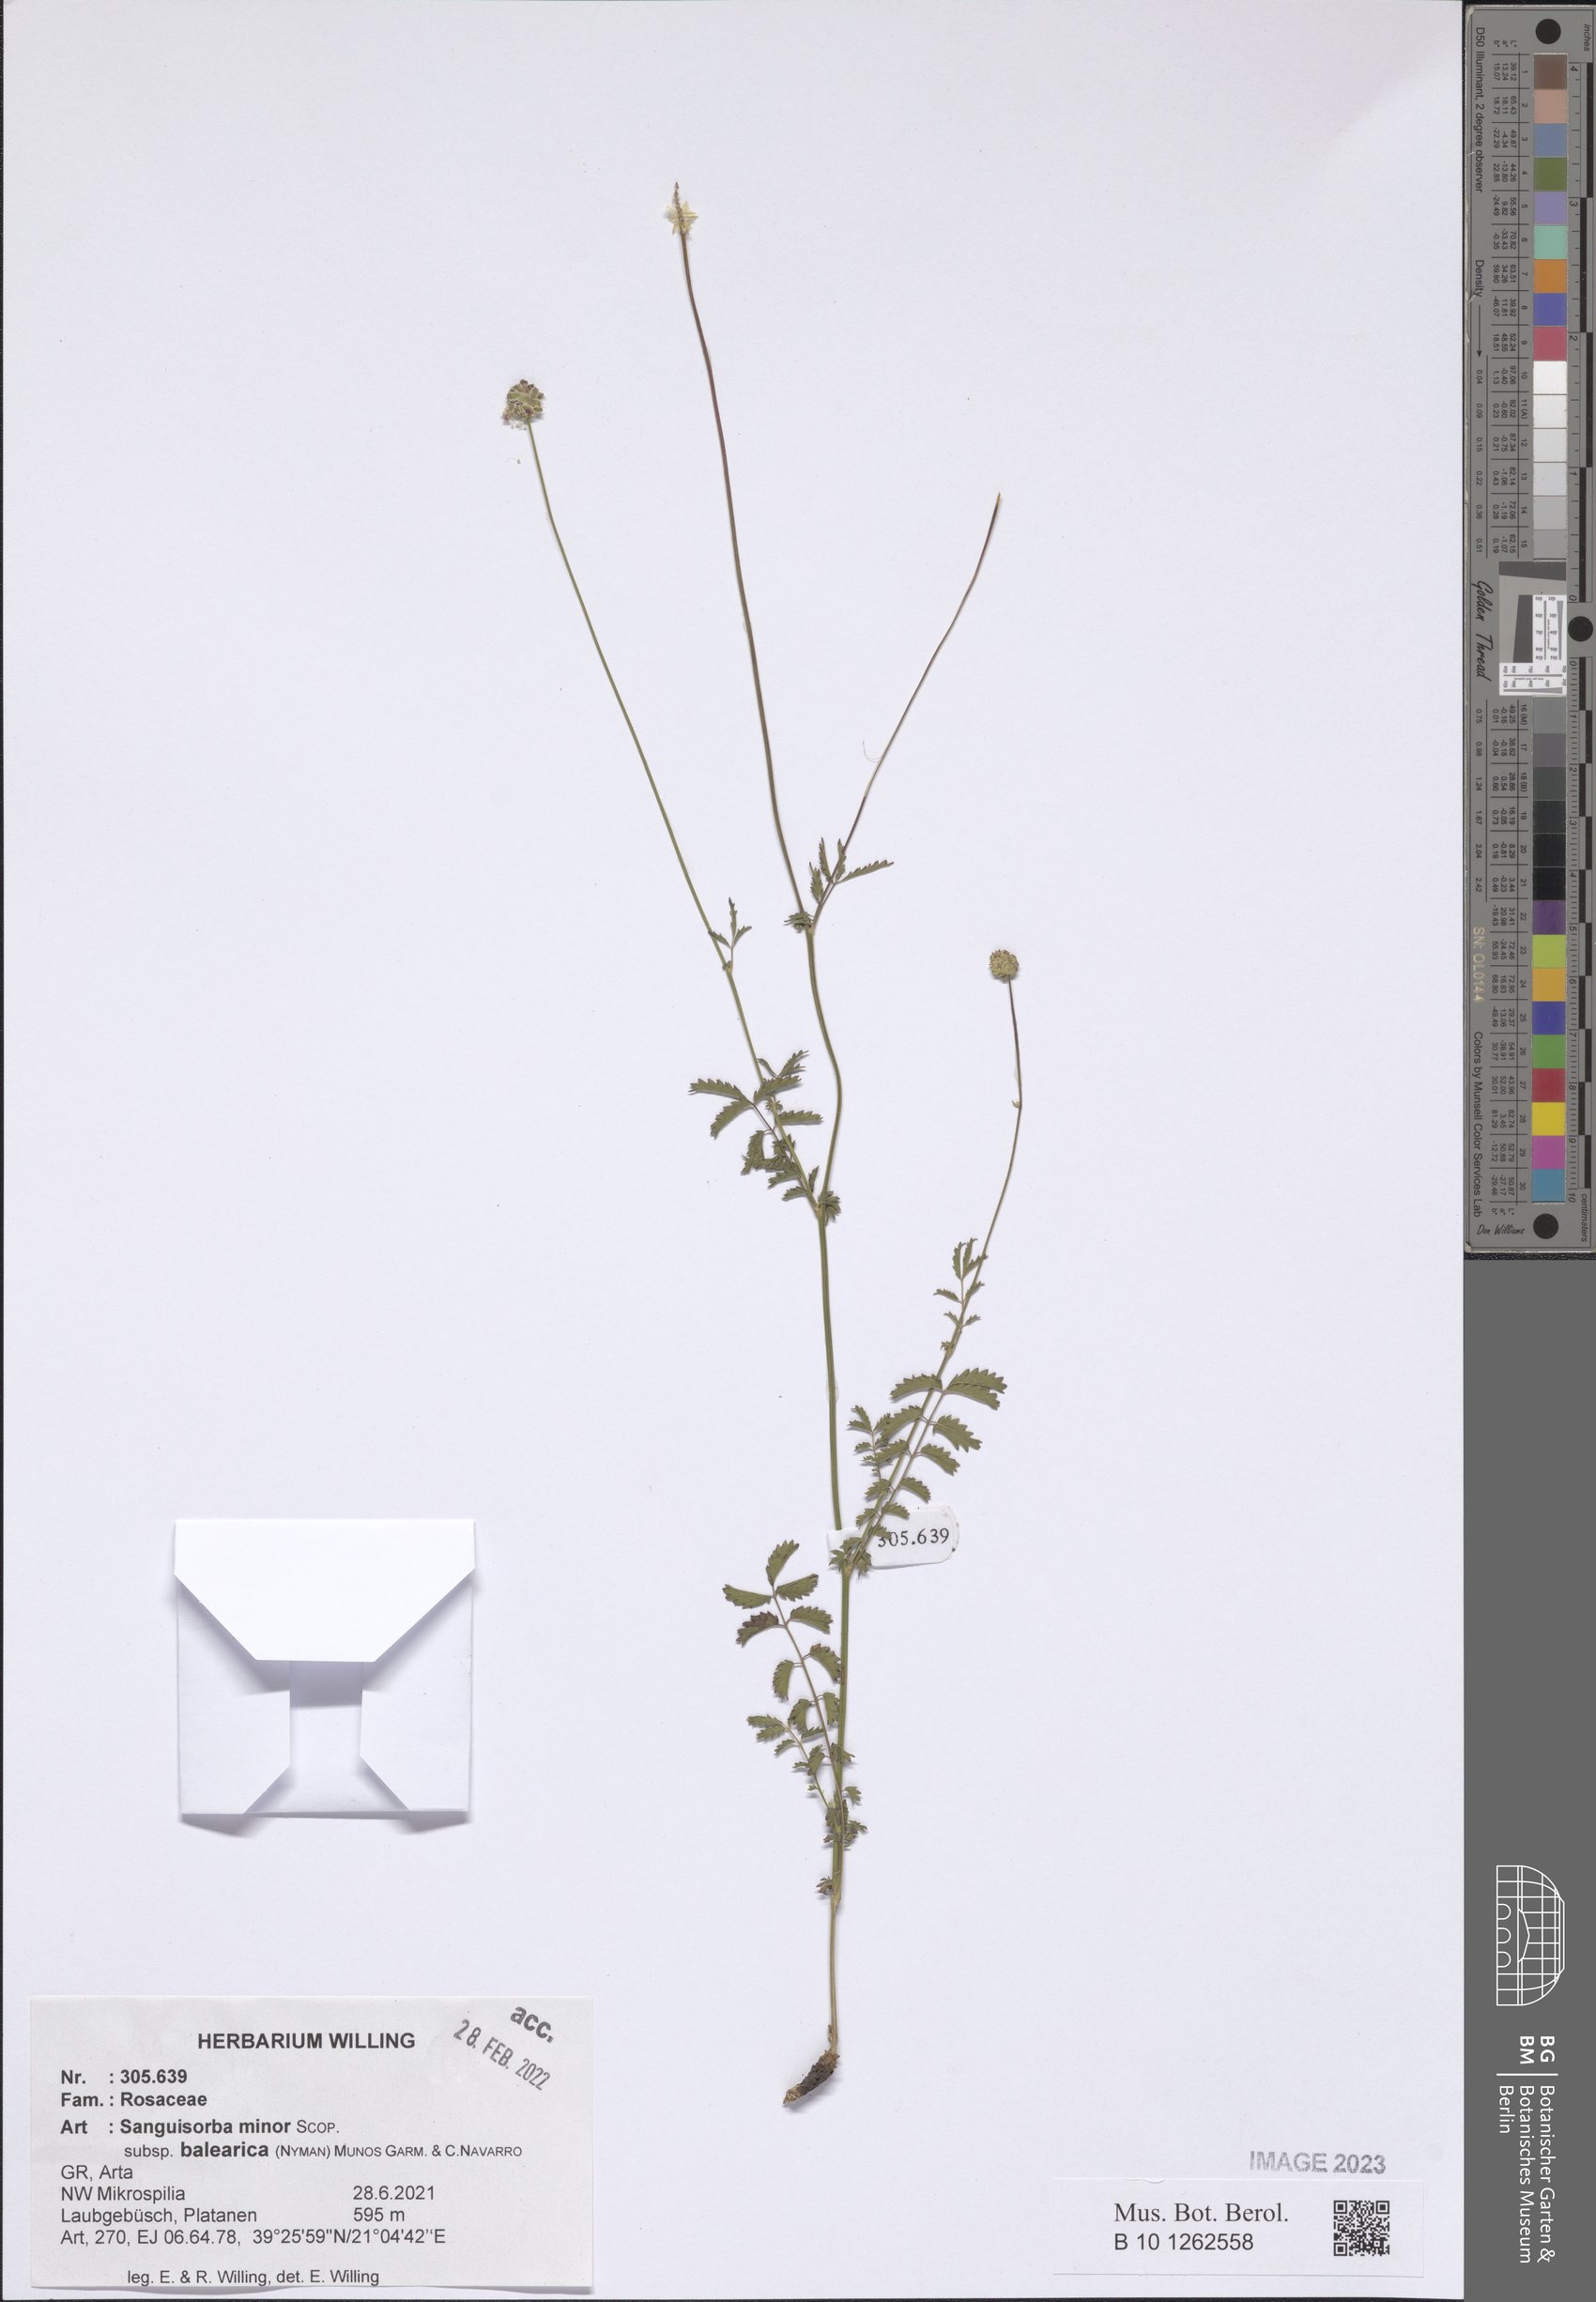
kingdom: Plantae
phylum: Tracheophyta
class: Magnoliopsida
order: Rosales
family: Rosaceae
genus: Poterium
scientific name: Poterium sanguisorba
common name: Salad burnet
